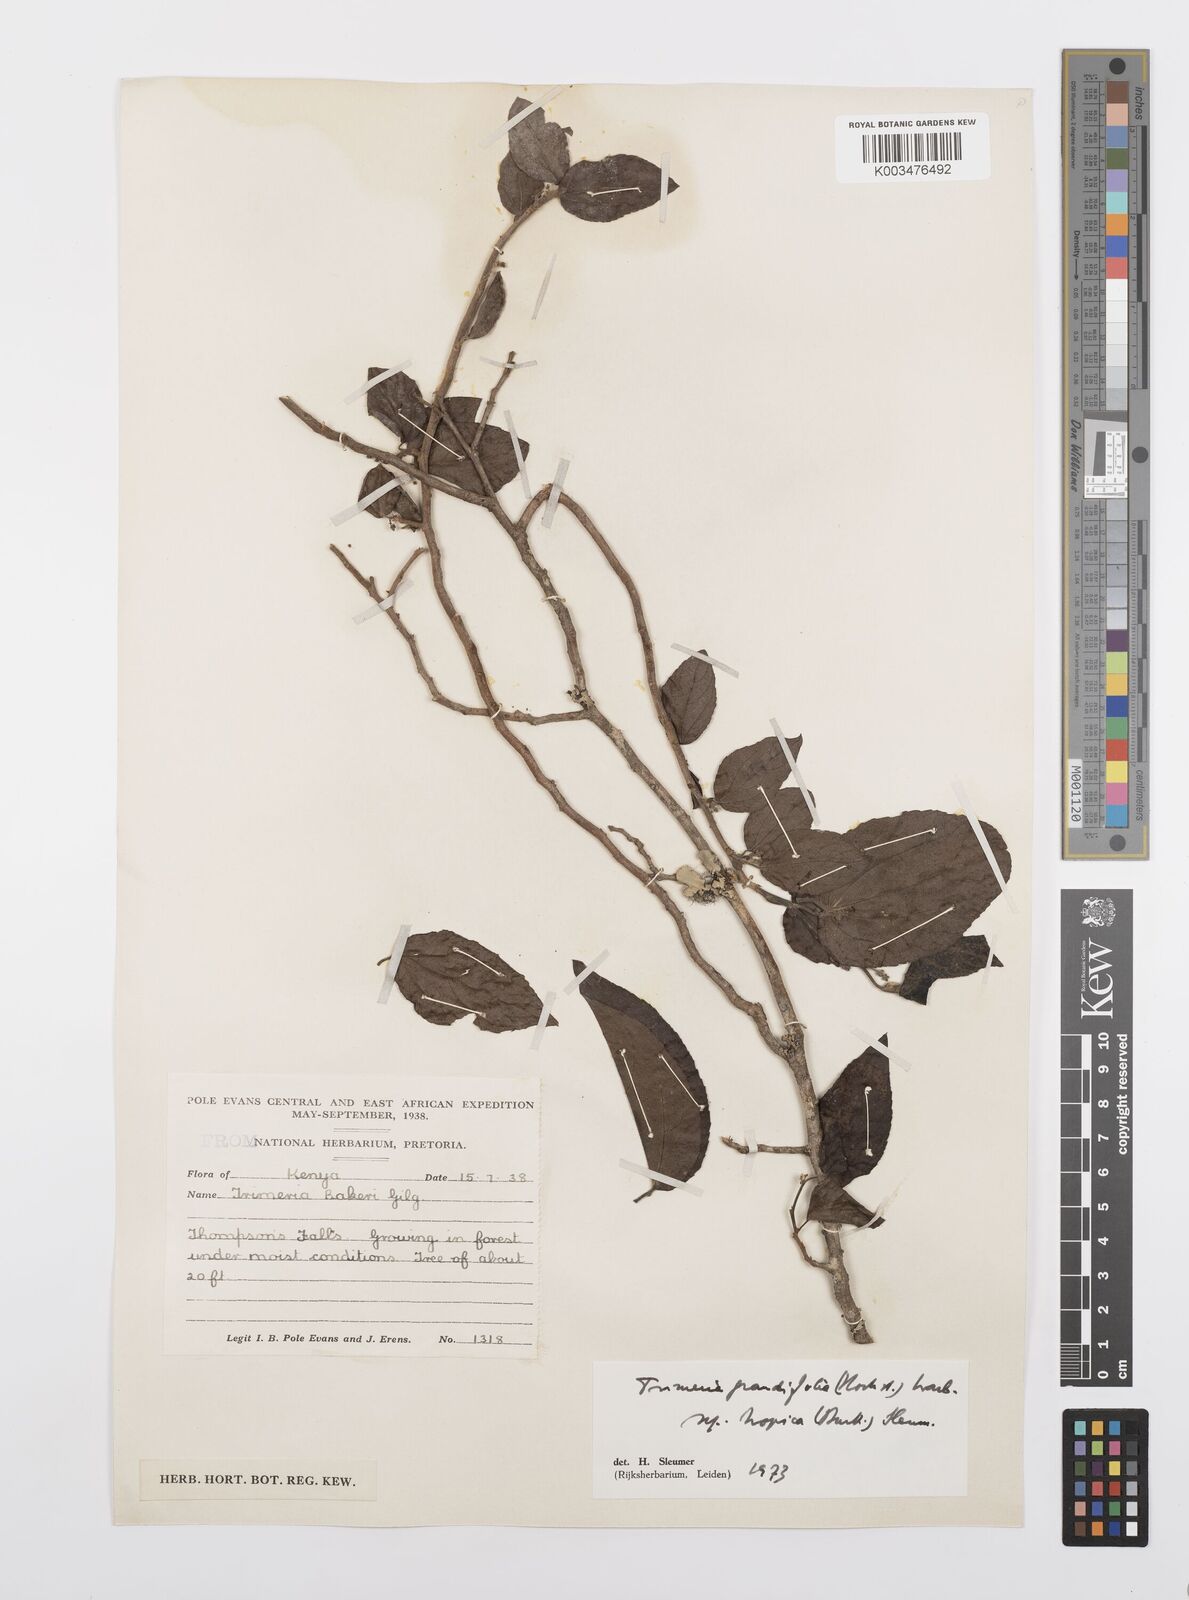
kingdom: Plantae
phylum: Tracheophyta
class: Magnoliopsida
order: Malpighiales
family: Salicaceae
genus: Trimeria
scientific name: Trimeria grandifolia
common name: Wild mulberry
